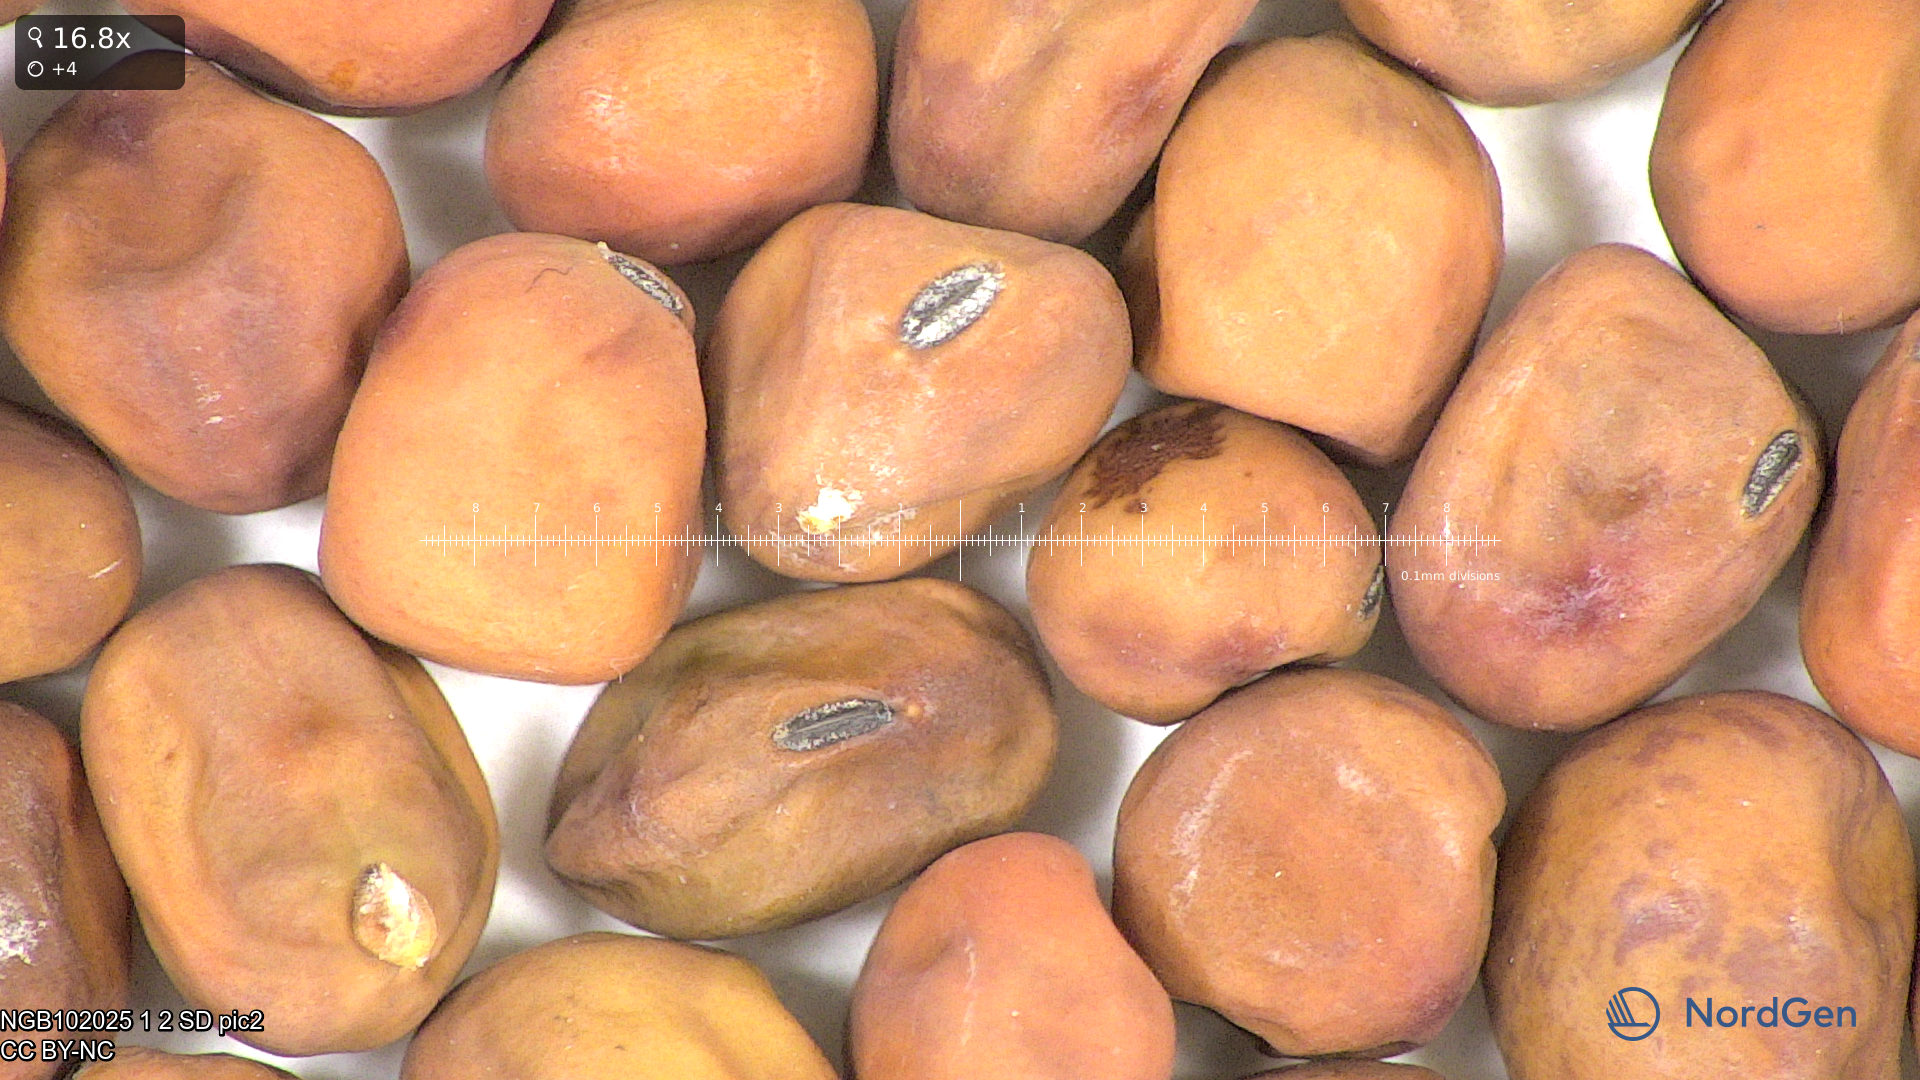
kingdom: Plantae
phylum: Tracheophyta
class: Magnoliopsida
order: Fabales
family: Fabaceae
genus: Lathyrus
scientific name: Lathyrus oleraceus
